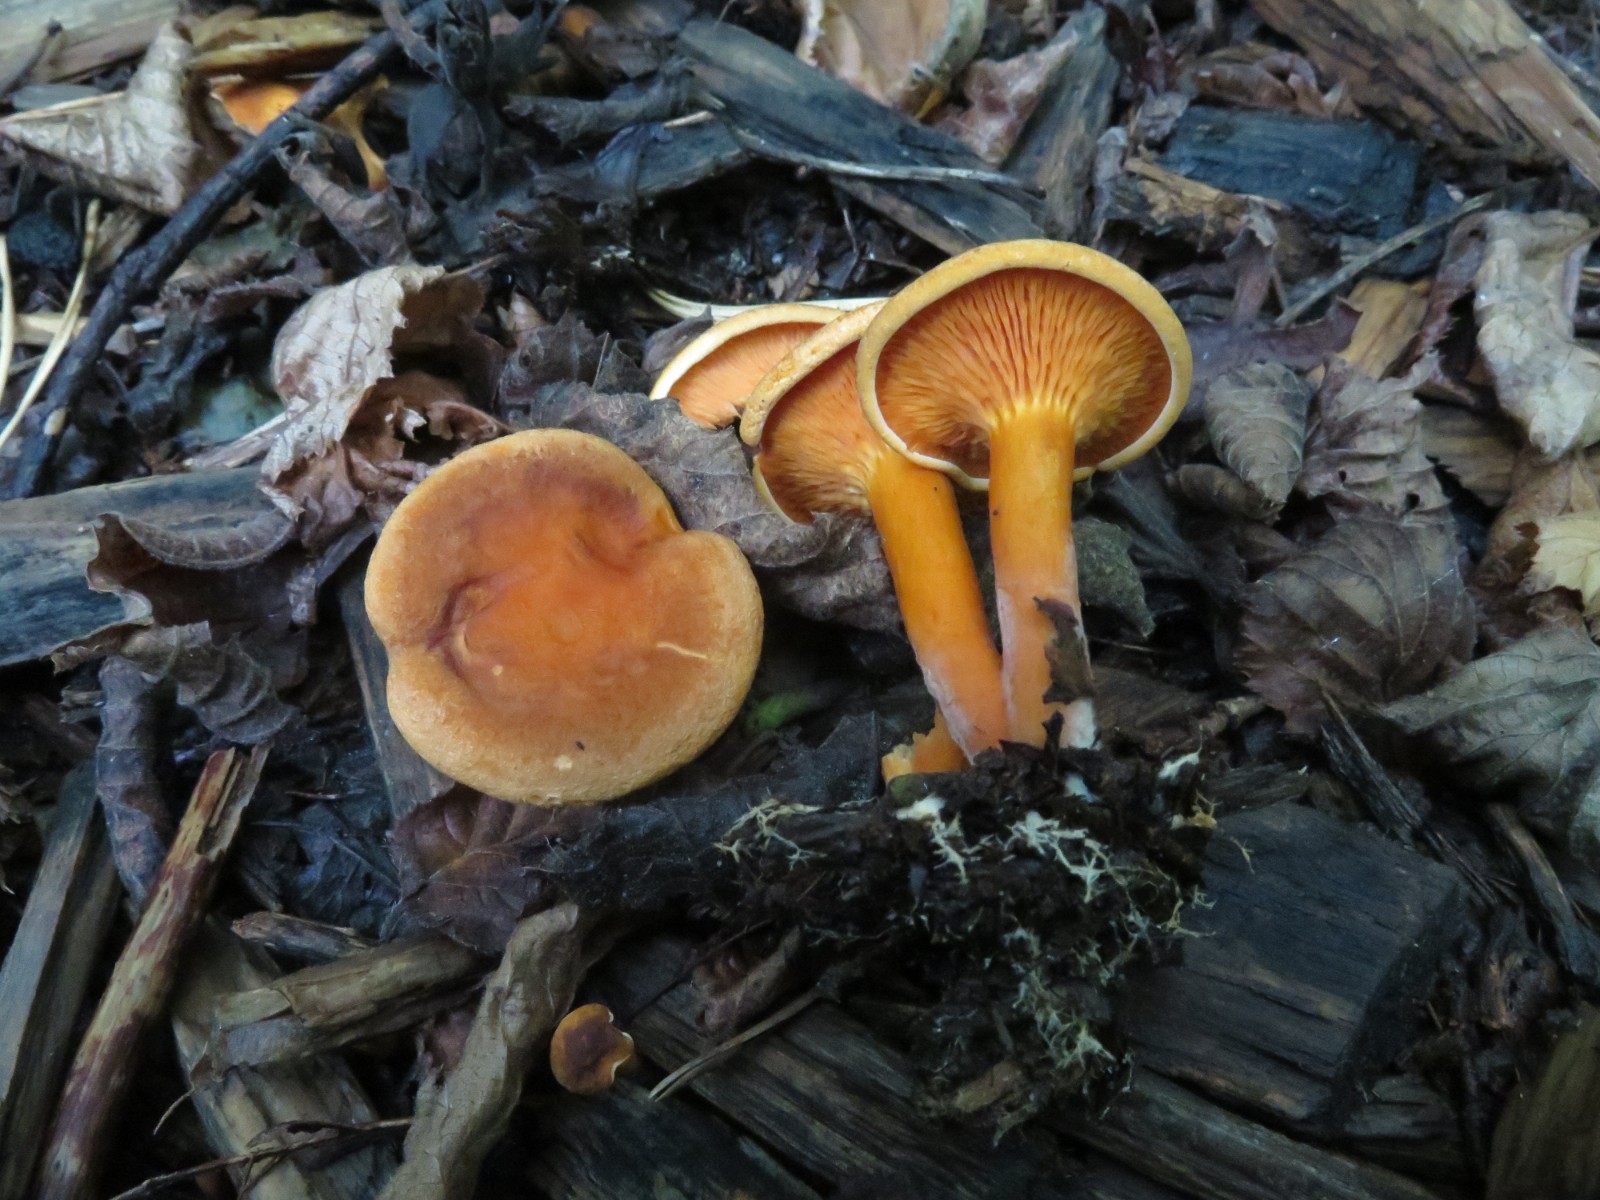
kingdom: Fungi
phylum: Basidiomycota
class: Agaricomycetes
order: Boletales
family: Hygrophoropsidaceae
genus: Hygrophoropsis
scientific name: Hygrophoropsis aurantiaca
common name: almindelig orangekantarel
